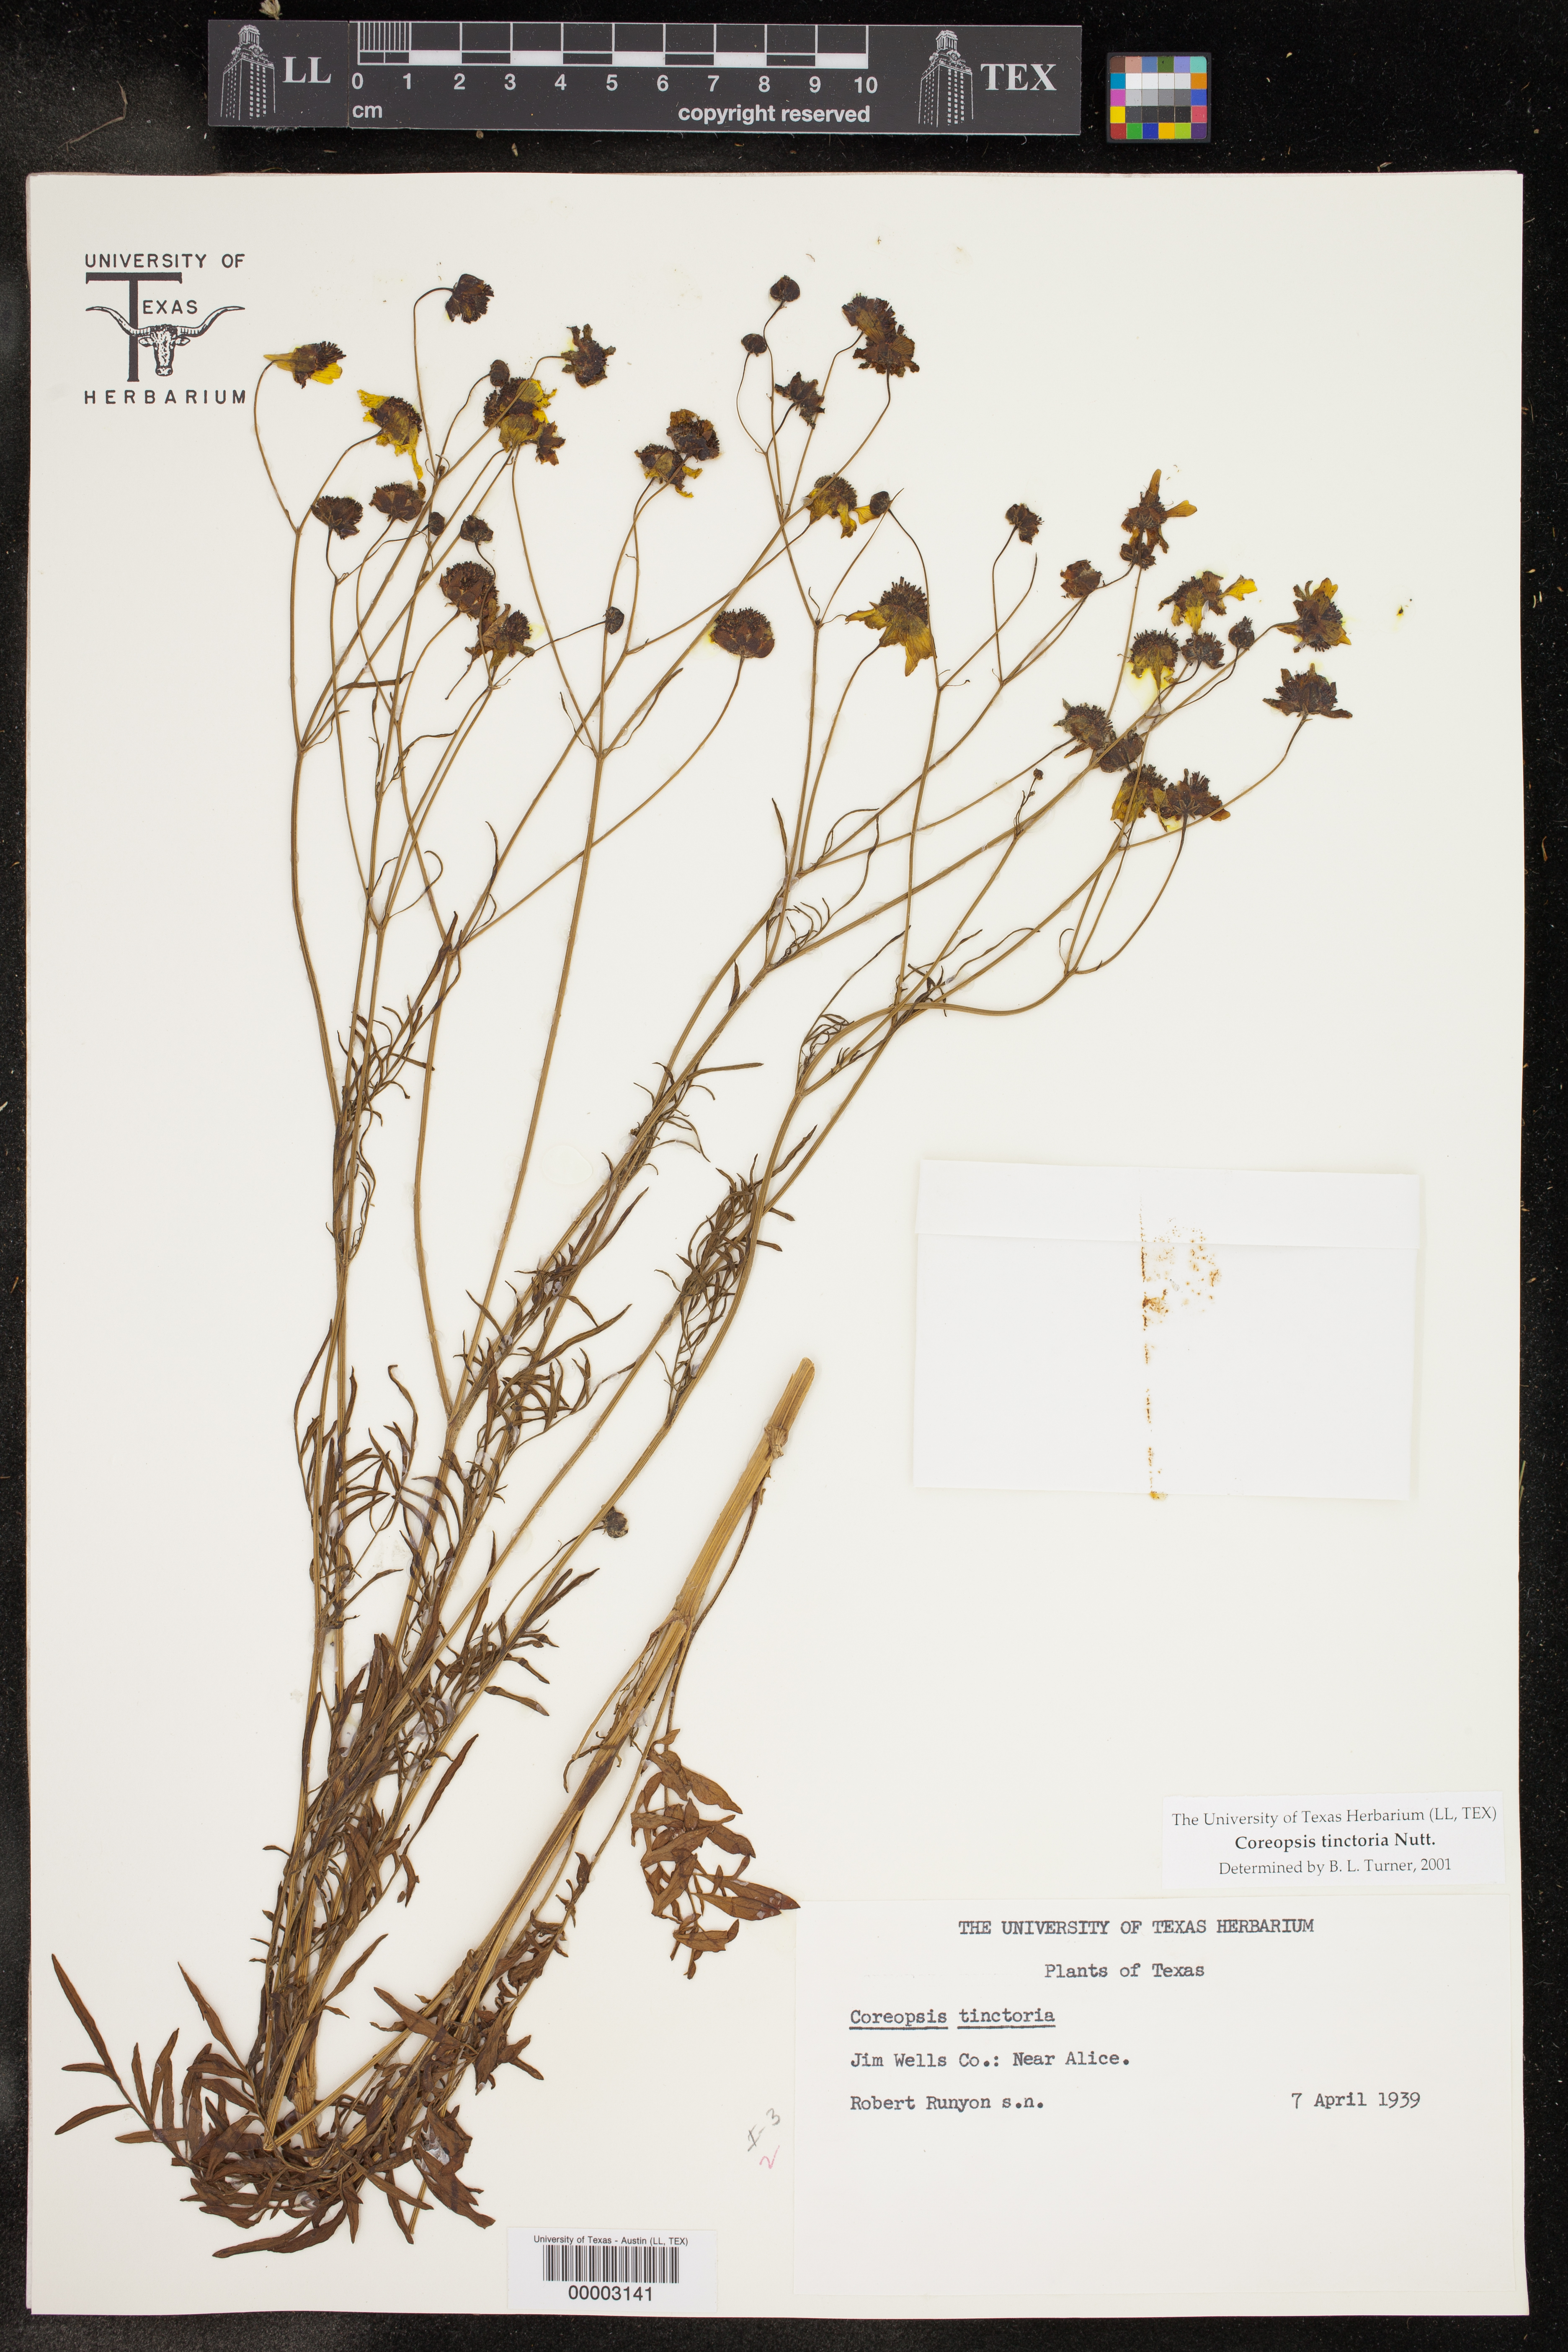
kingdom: Plantae
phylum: Tracheophyta
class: Magnoliopsida
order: Asterales
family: Asteraceae
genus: Coreopsis
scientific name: Coreopsis tinctoria
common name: Garden tickseed
